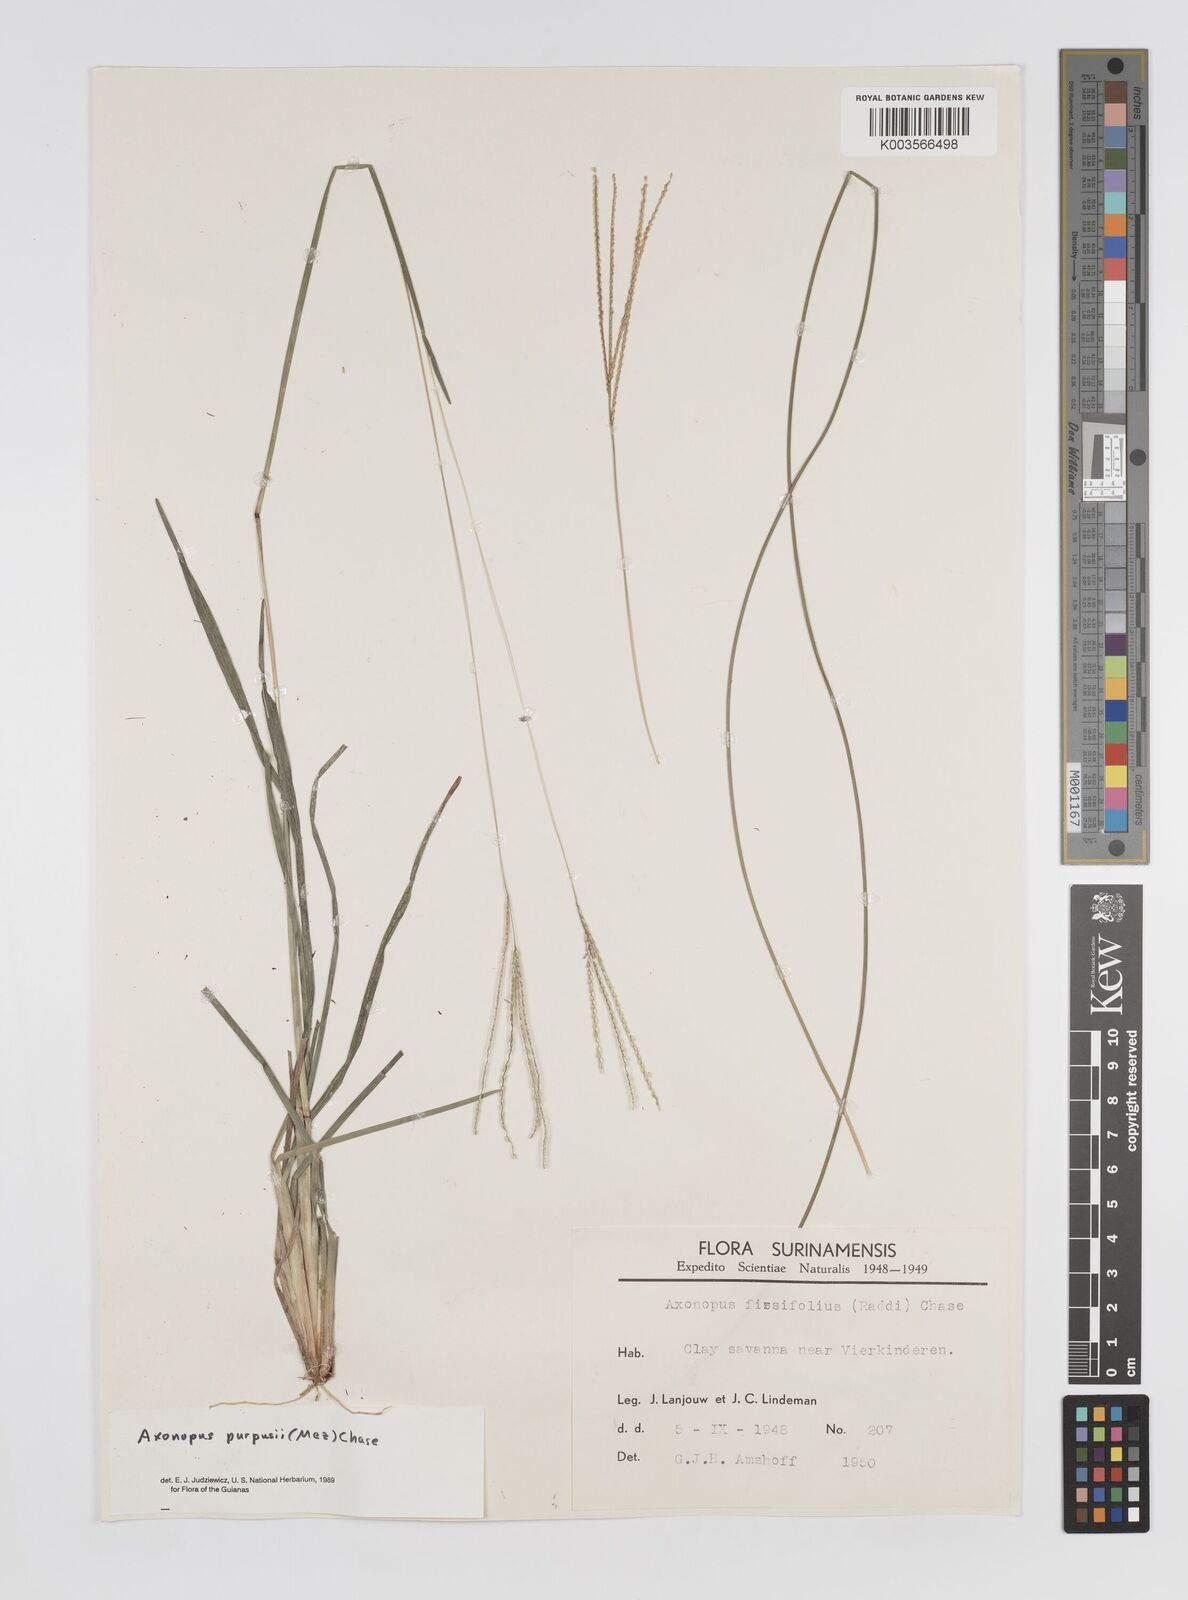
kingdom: Plantae
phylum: Tracheophyta
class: Liliopsida
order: Poales
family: Poaceae
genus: Axonopus
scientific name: Axonopus purpusii
